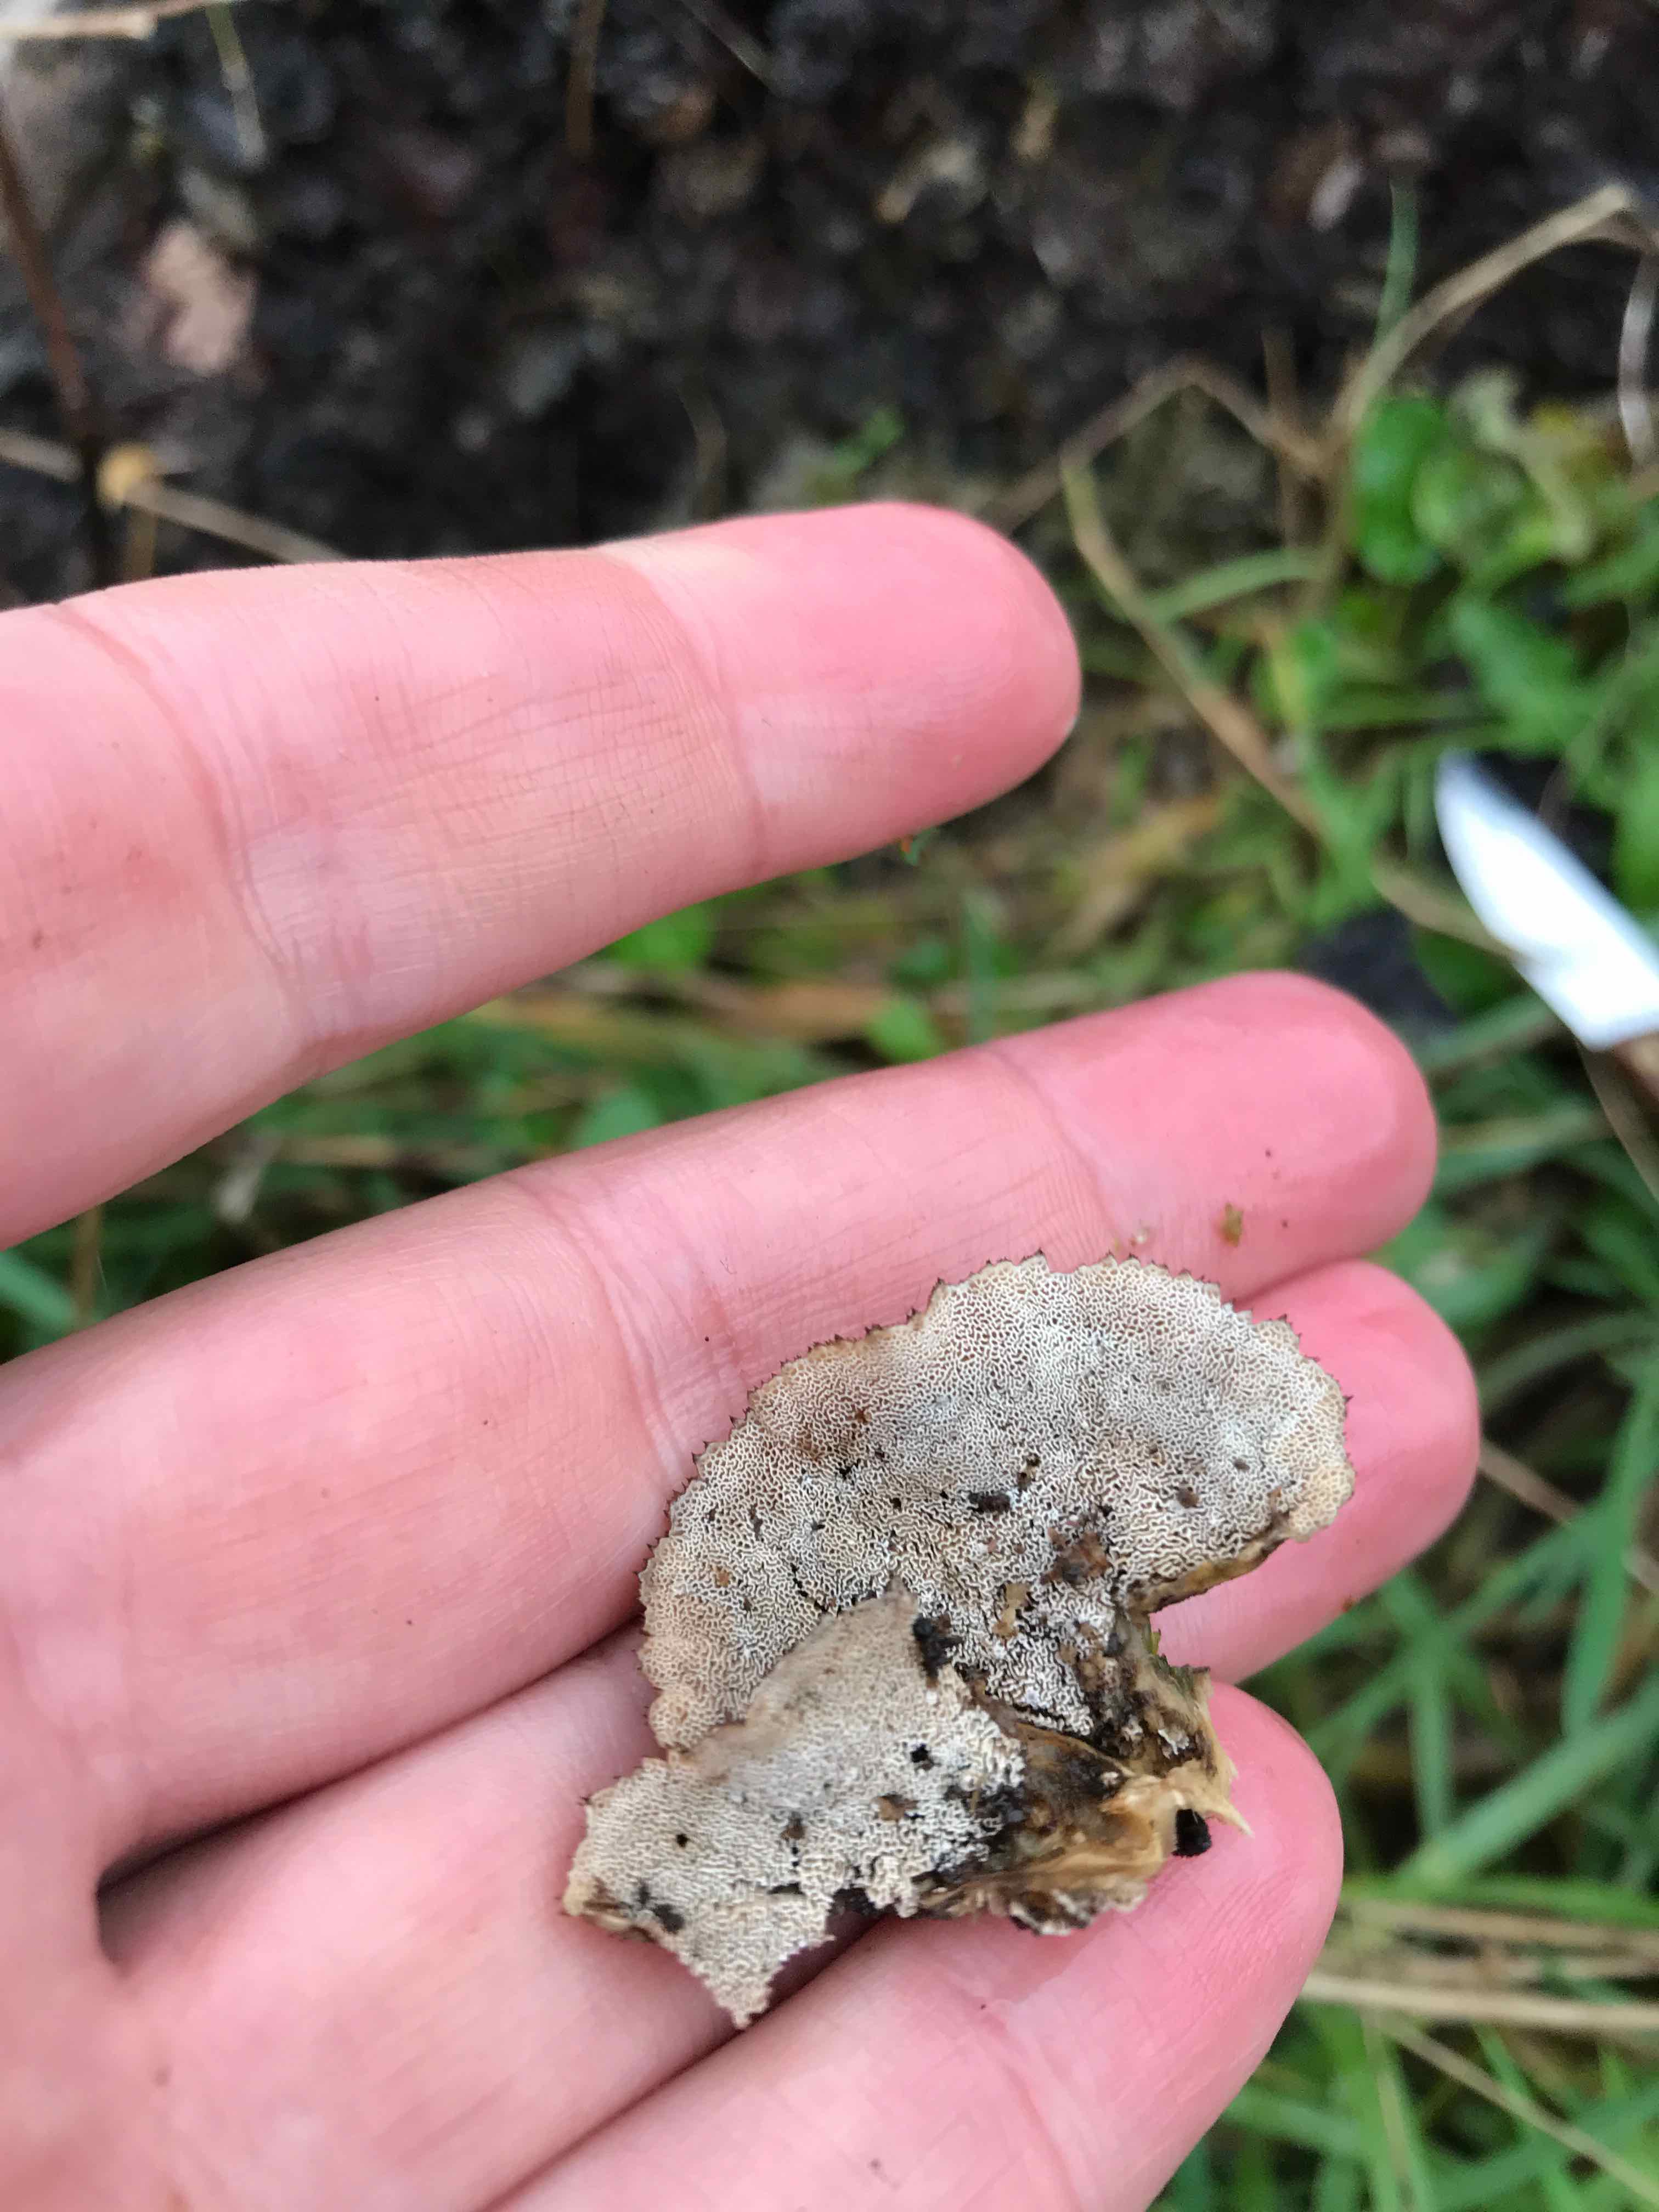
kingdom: Fungi
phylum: Basidiomycota
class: Agaricomycetes
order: Polyporales
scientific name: Polyporales
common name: poresvampordenen
